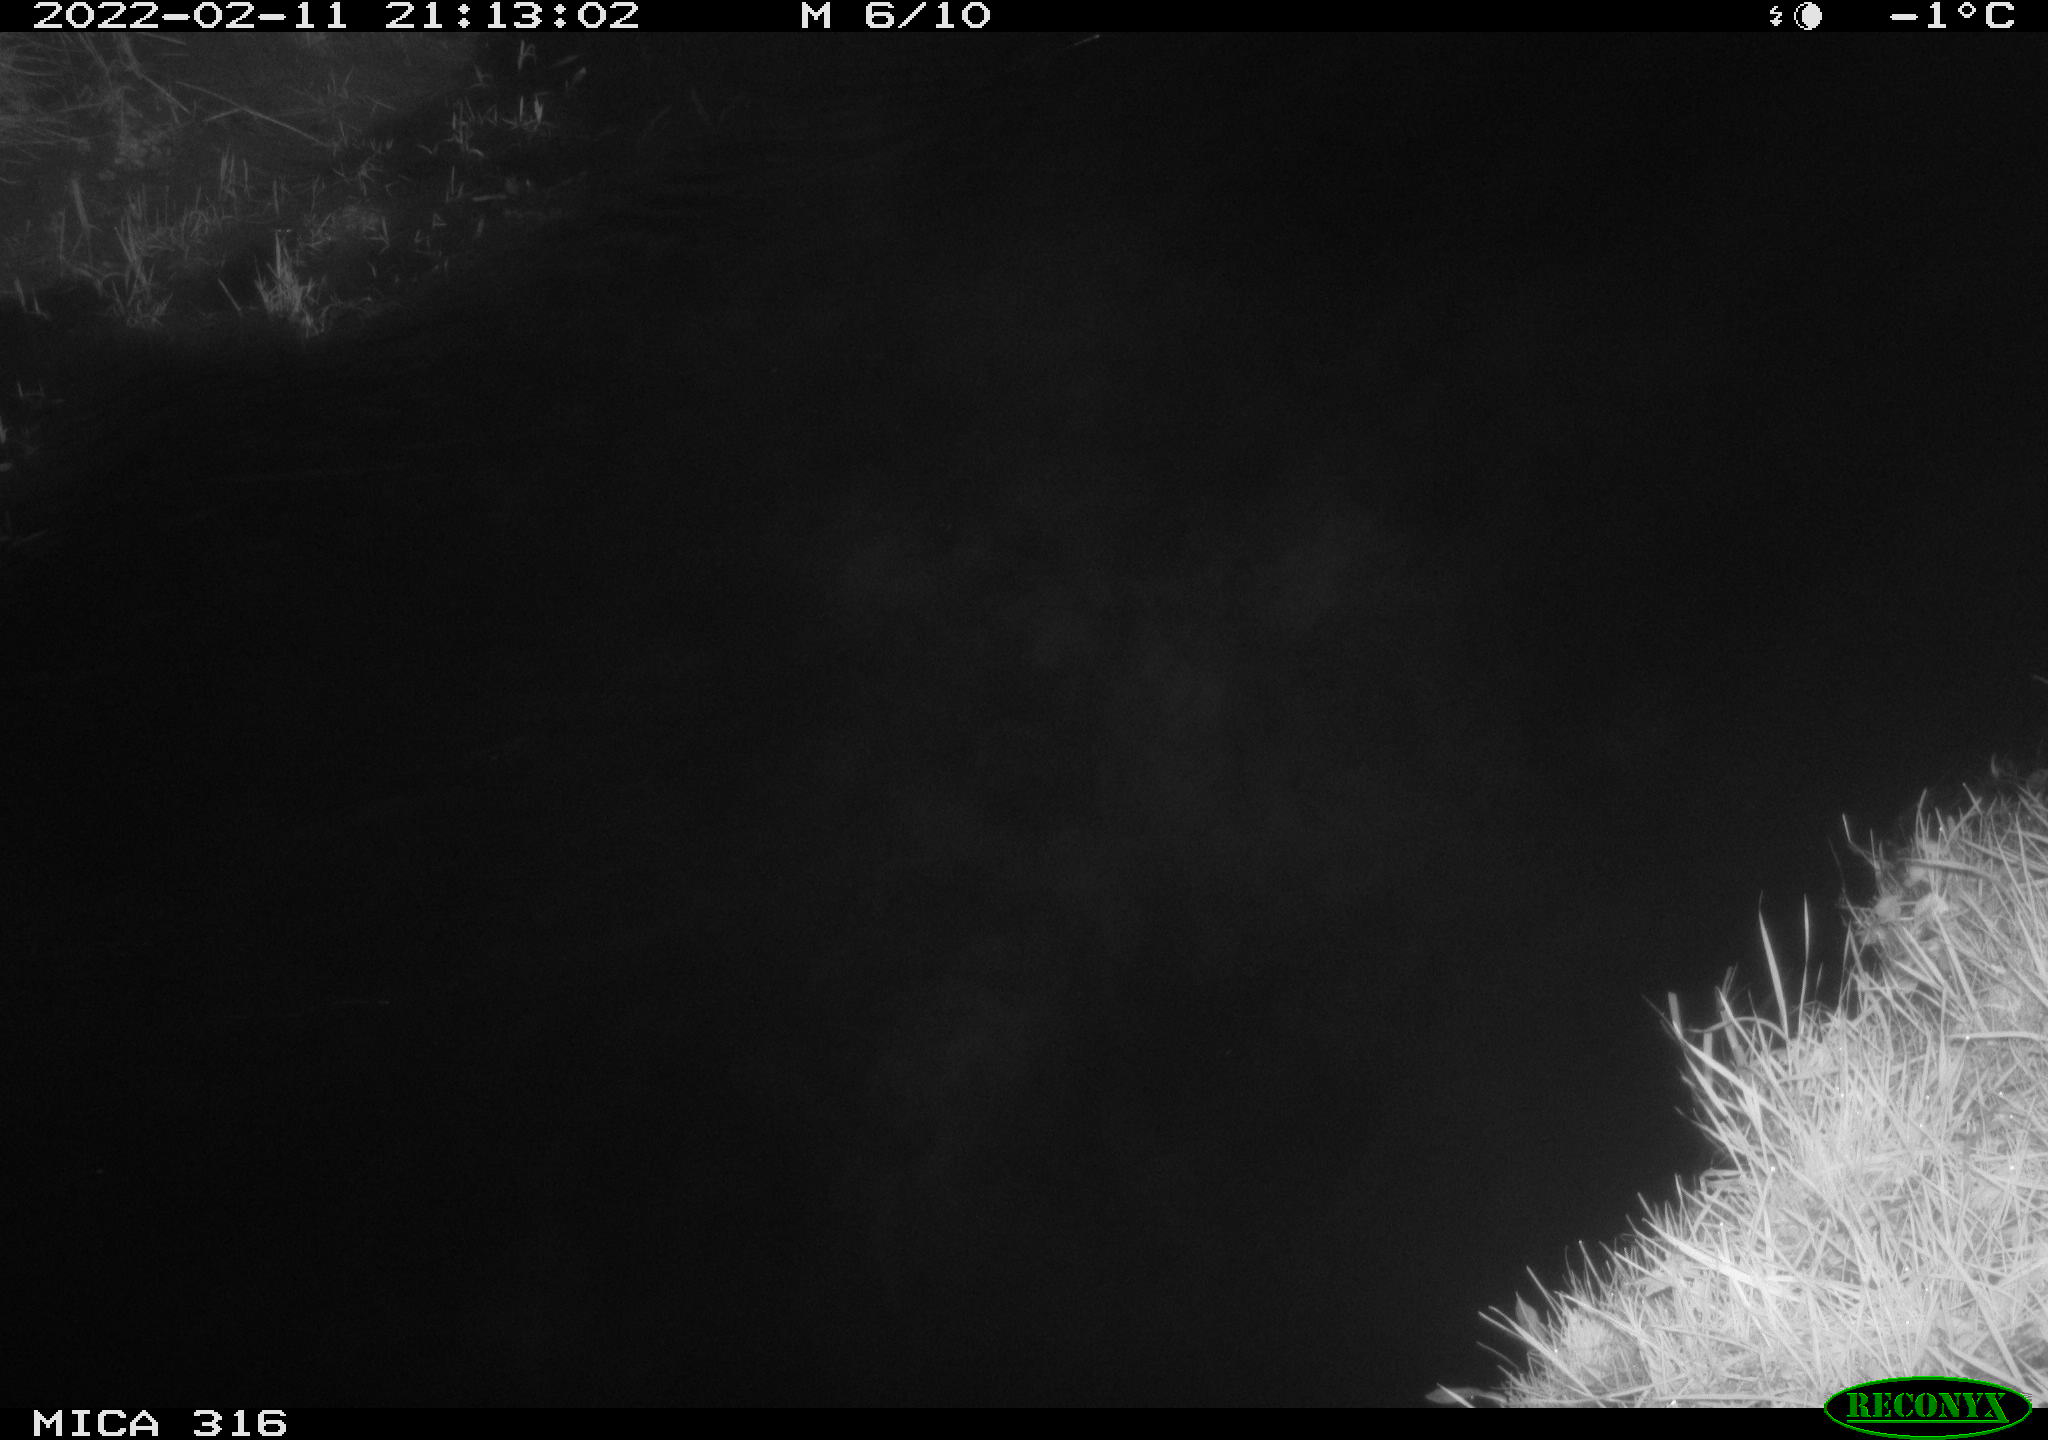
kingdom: Animalia
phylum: Chordata
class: Aves
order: Anseriformes
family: Anatidae
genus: Anas
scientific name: Anas platyrhynchos
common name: Mallard
